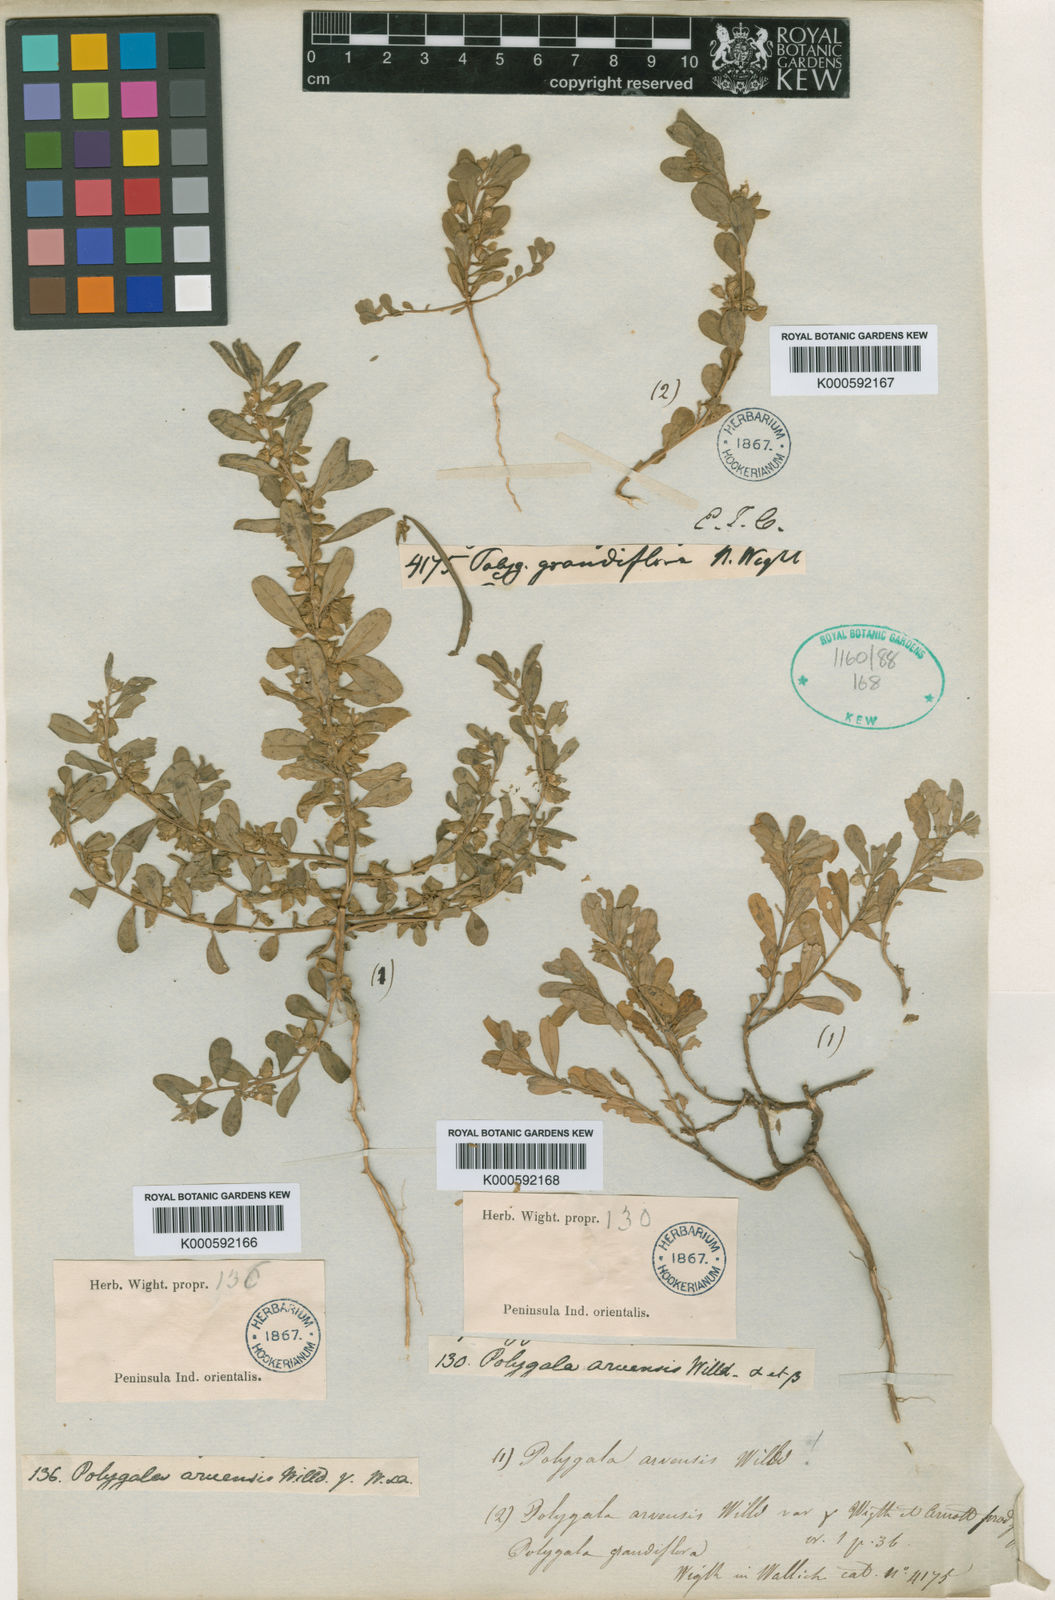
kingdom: Plantae
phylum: Tracheophyta
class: Magnoliopsida
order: Fabales
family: Polygalaceae
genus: Polygala
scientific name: Polygala glomerata
